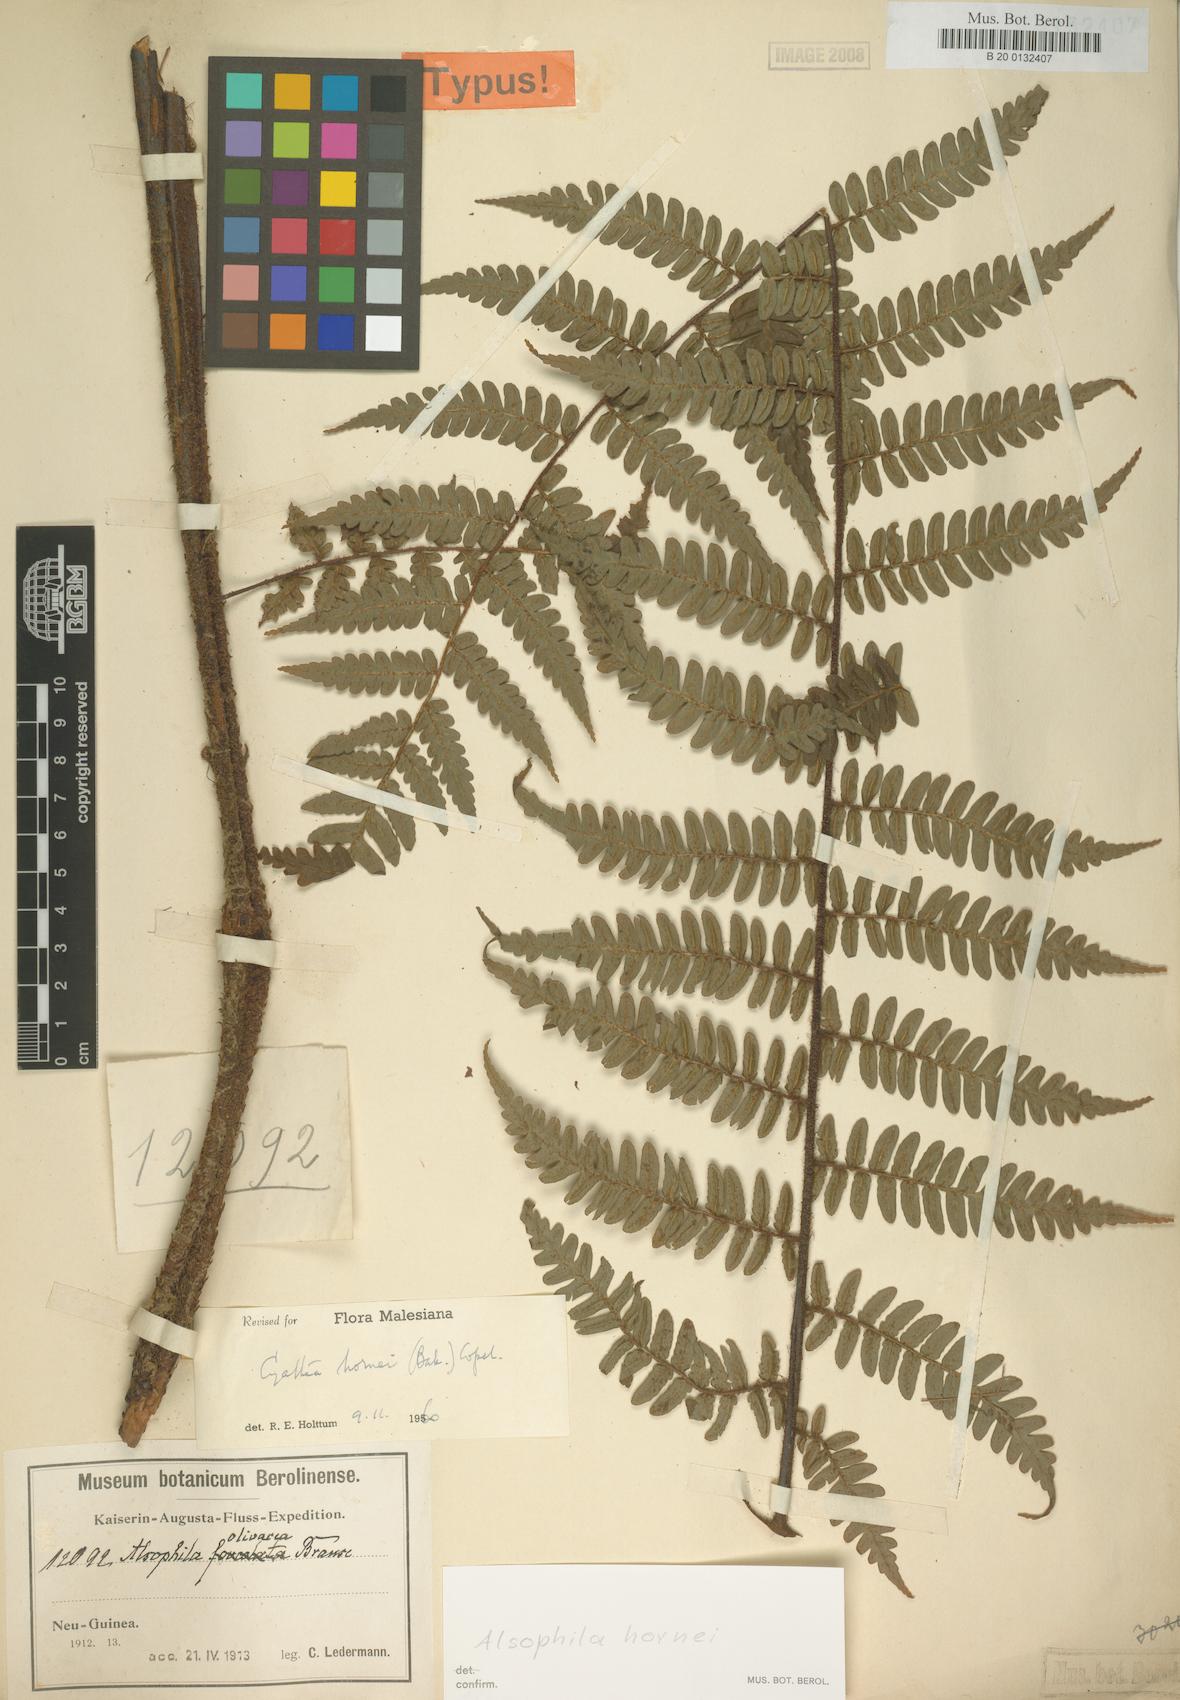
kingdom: Plantae
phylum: Tracheophyta
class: Polypodiopsida
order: Cyatheales
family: Cyatheaceae
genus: Gymnosphaera
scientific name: Gymnosphaera hornei
